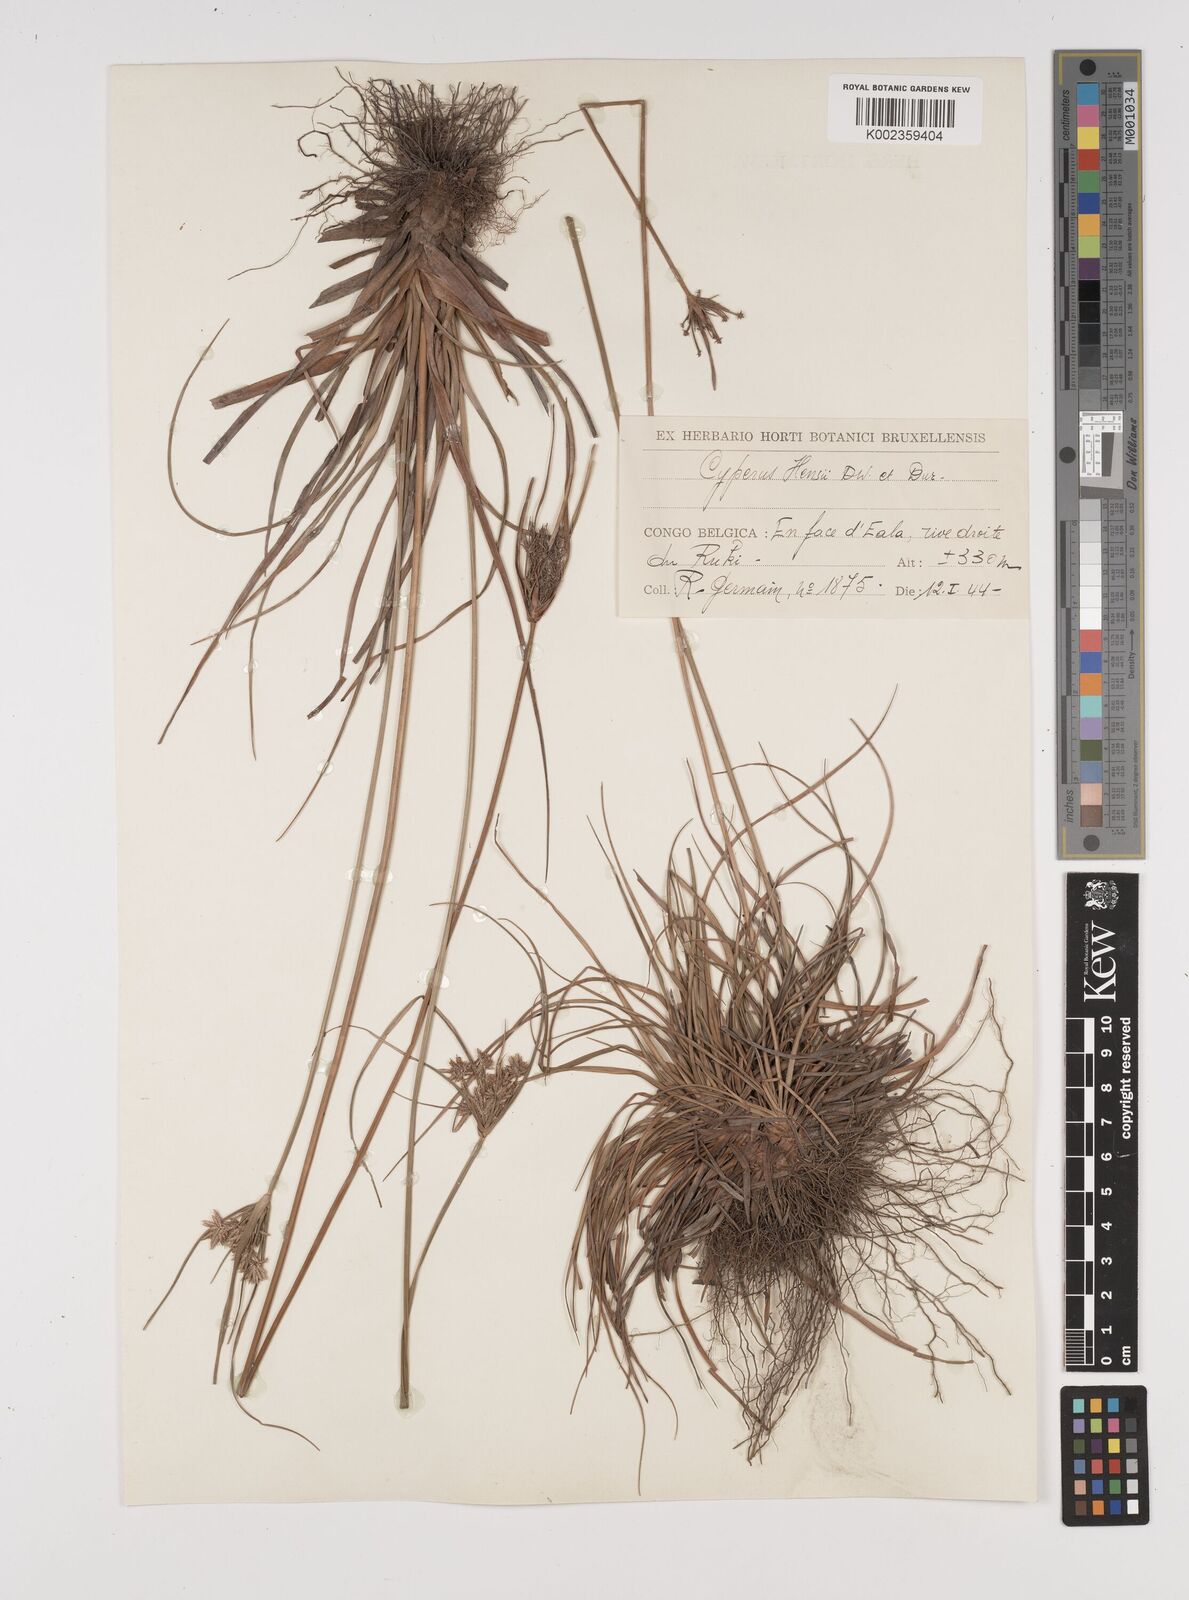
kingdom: Plantae
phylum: Tracheophyta
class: Liliopsida
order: Poales
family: Cyperaceae
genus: Cyperus
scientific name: Cyperus
